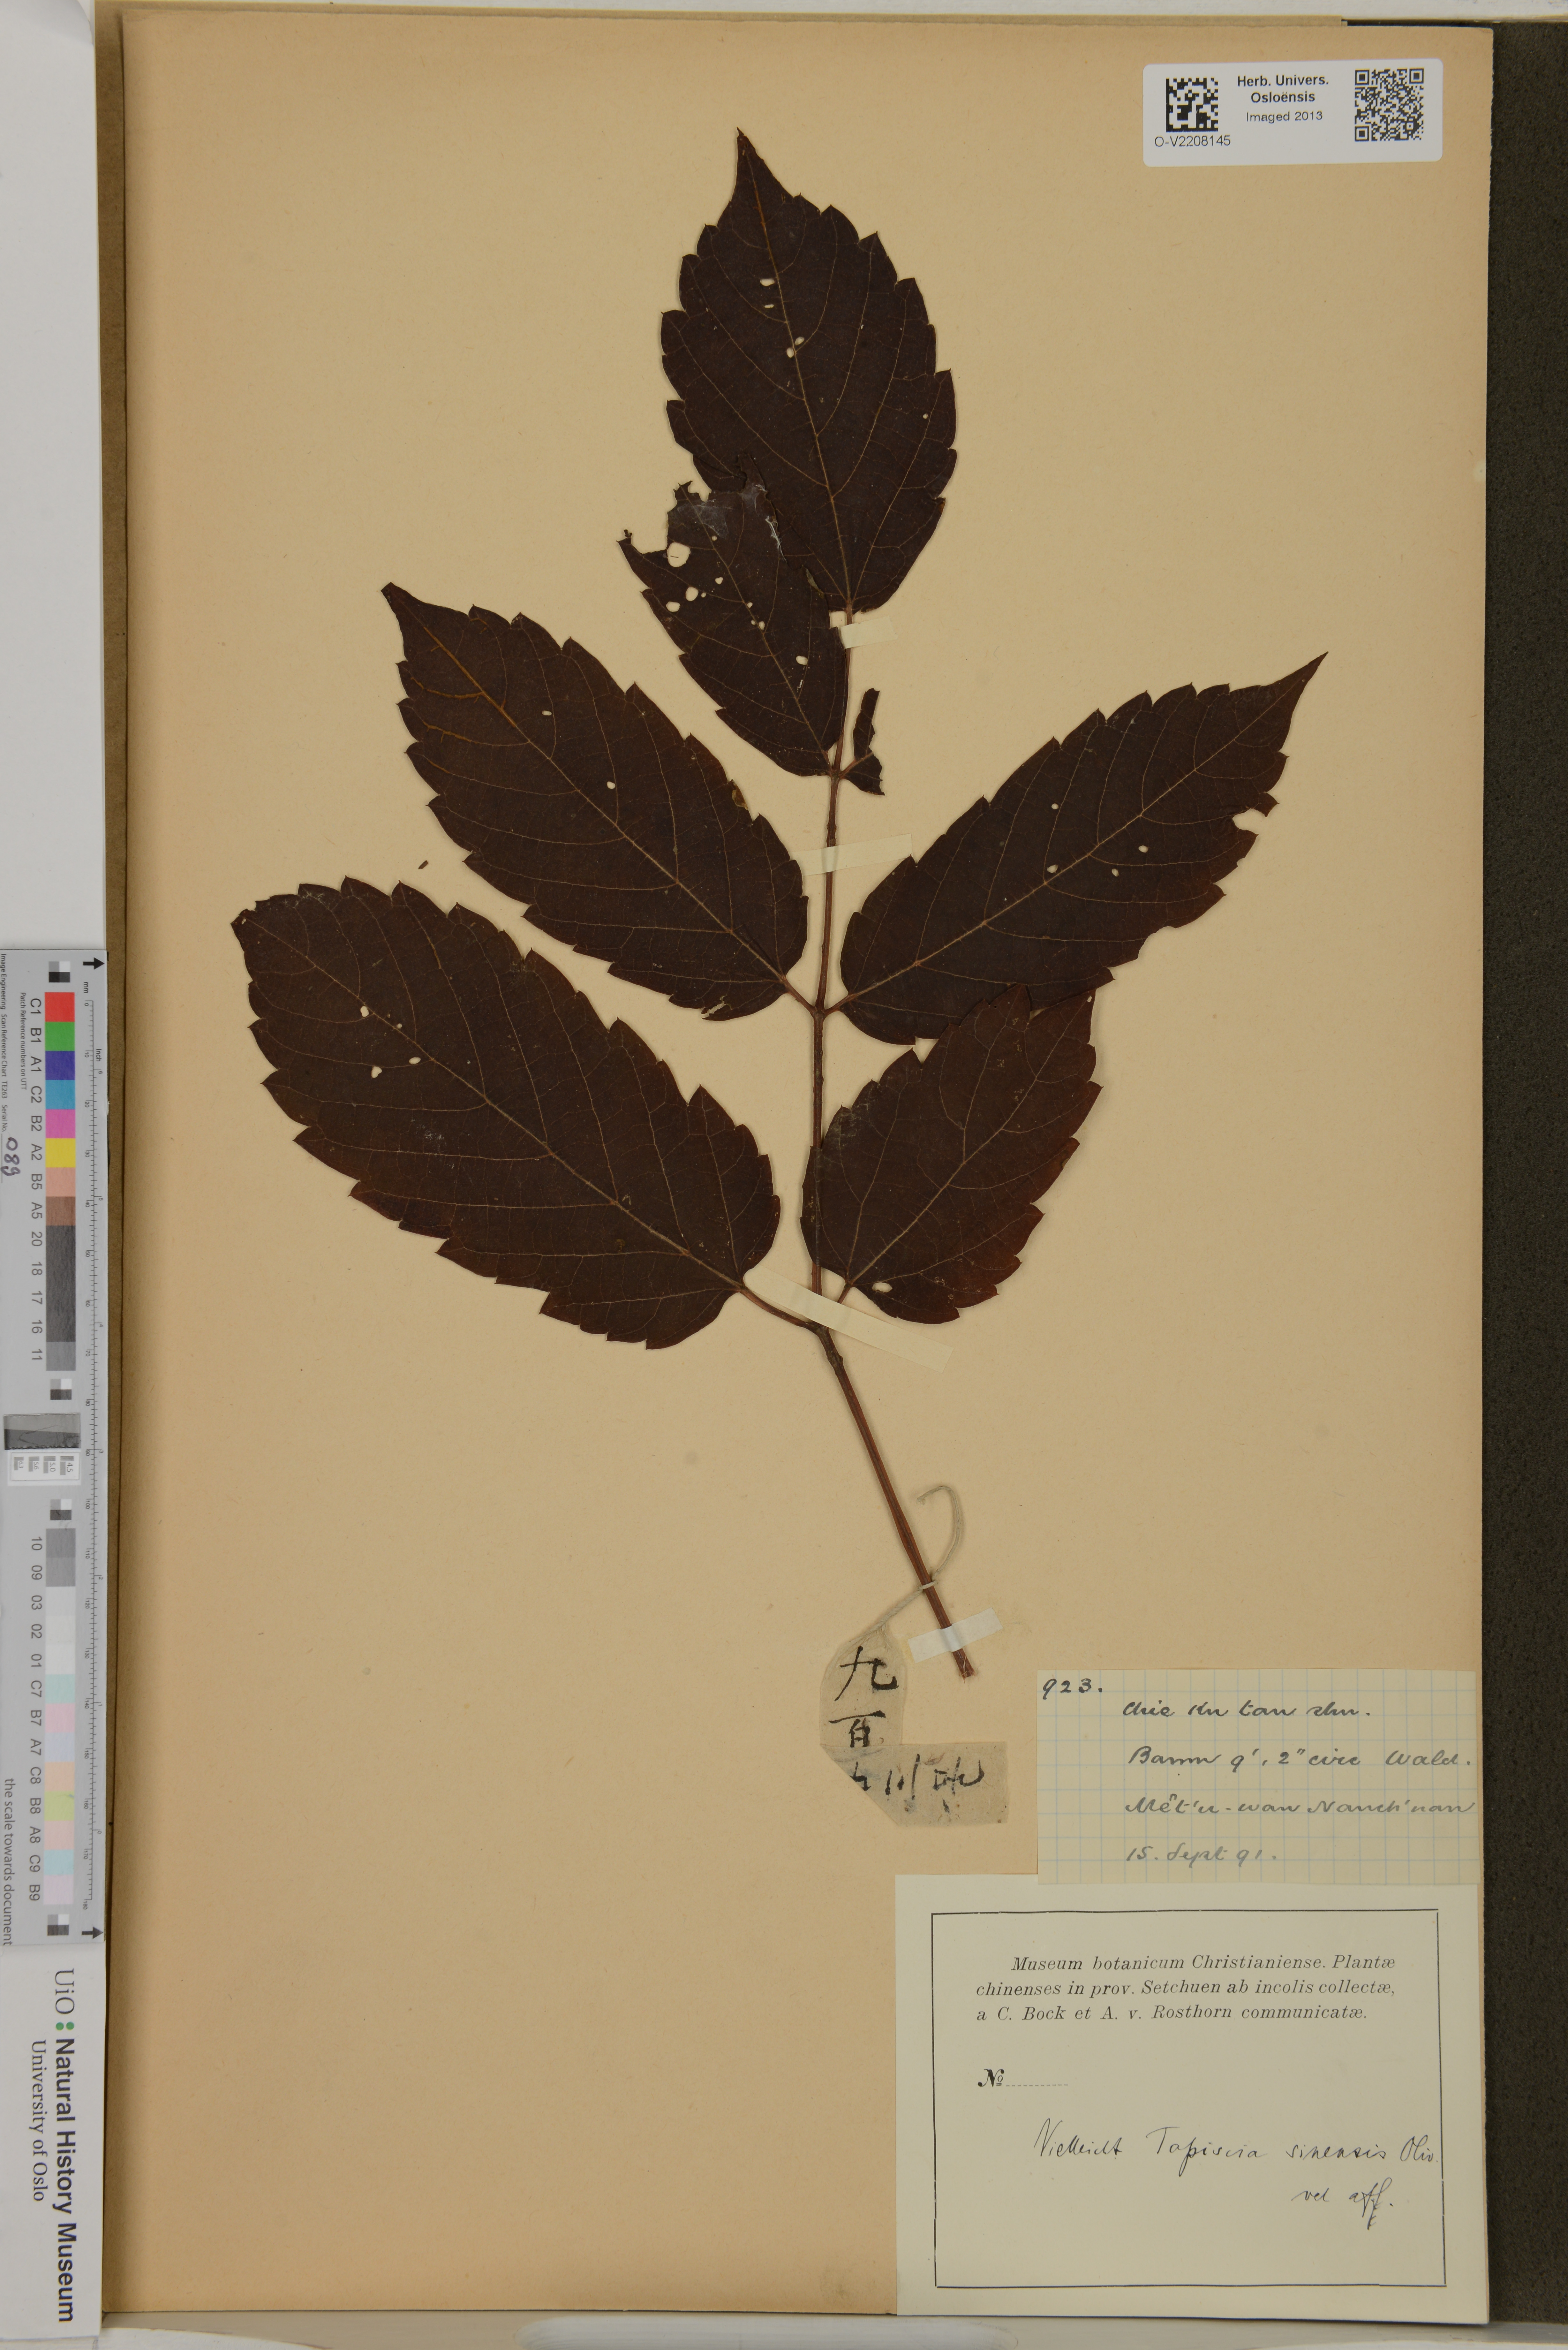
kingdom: Plantae
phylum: Tracheophyta
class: Magnoliopsida
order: Huerteales
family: Tapisciaceae
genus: Tapiscia
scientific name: Tapiscia sinensis
